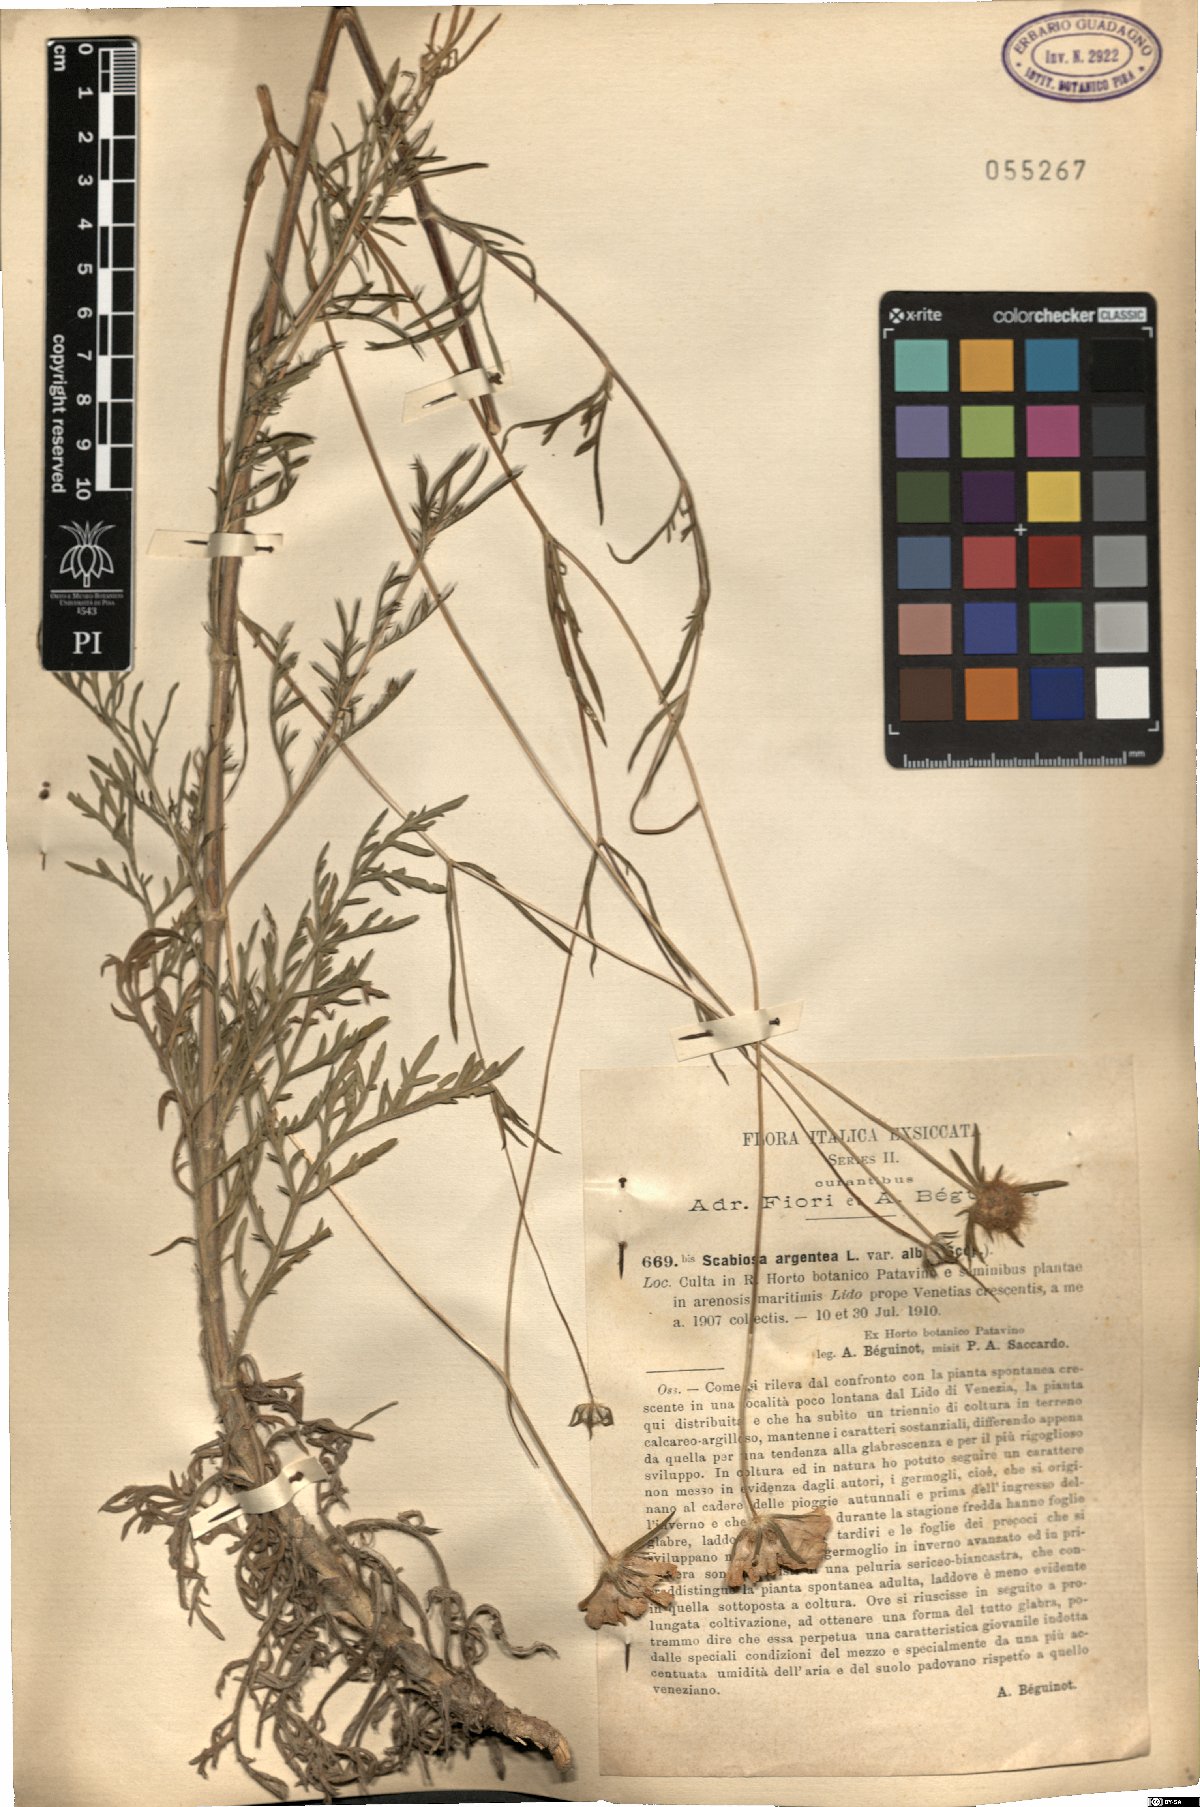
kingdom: Plantae
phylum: Tracheophyta
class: Magnoliopsida
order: Dipsacales
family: Caprifoliaceae
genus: Lomelosia
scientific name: Lomelosia
